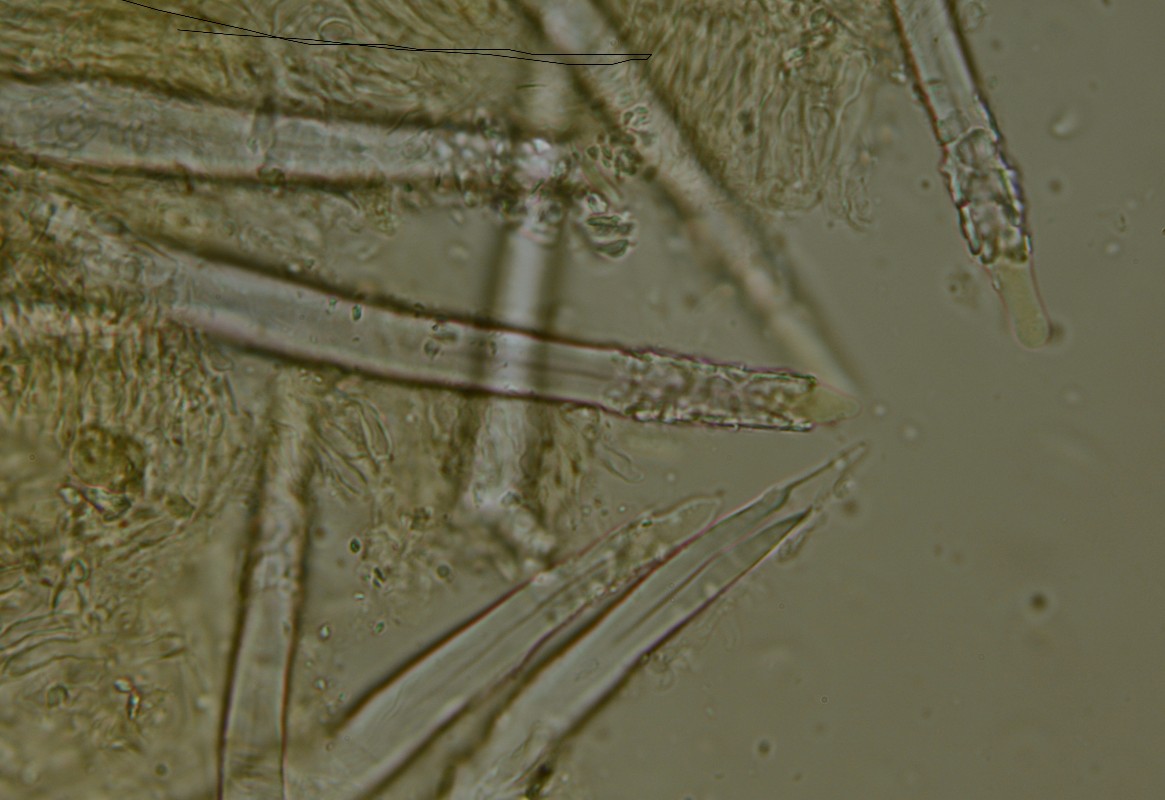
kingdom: Fungi
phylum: Basidiomycota
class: Agaricomycetes
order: Hymenochaetales
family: Hymenochaetaceae
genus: Tubulicrinis
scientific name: Tubulicrinis subulatus
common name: spids nålehinde
